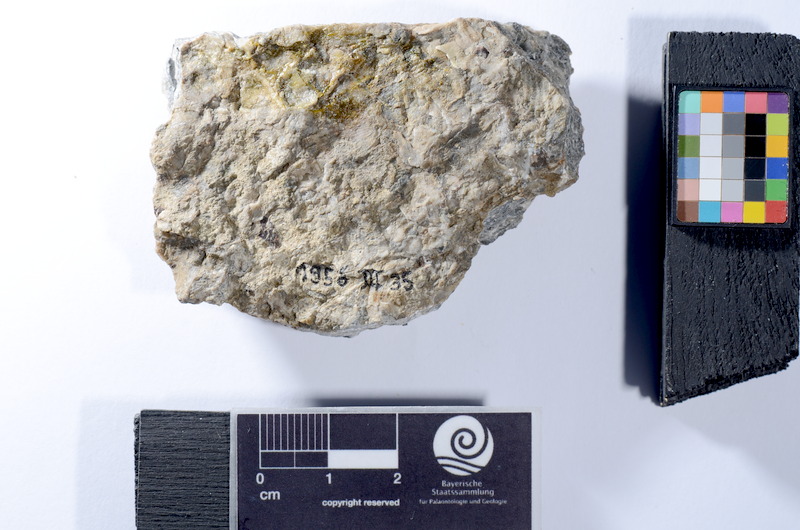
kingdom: Animalia
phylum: Chordata
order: Lepisosteiformes
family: Lepidotidae
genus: Lepidotes
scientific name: Lepidotes
